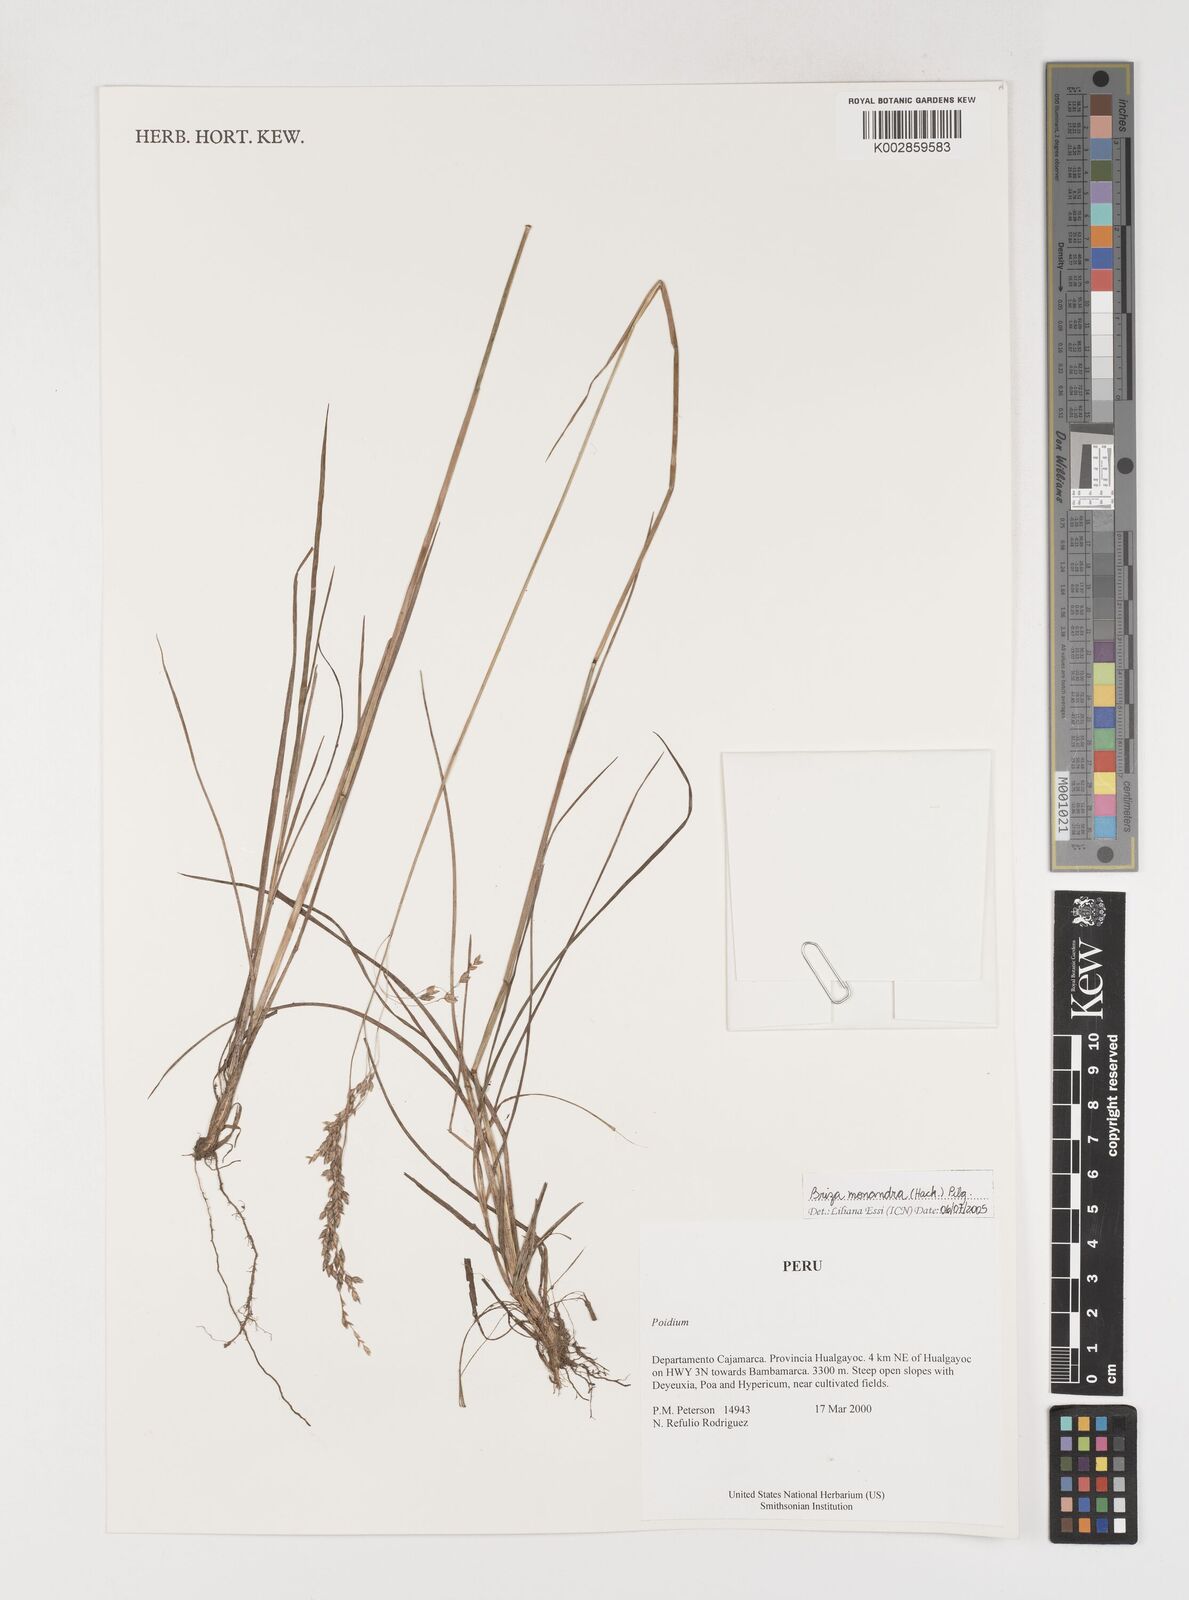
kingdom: Plantae
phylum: Tracheophyta
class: Liliopsida
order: Poales
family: Poaceae
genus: Poidium
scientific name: Poidium monandrum
